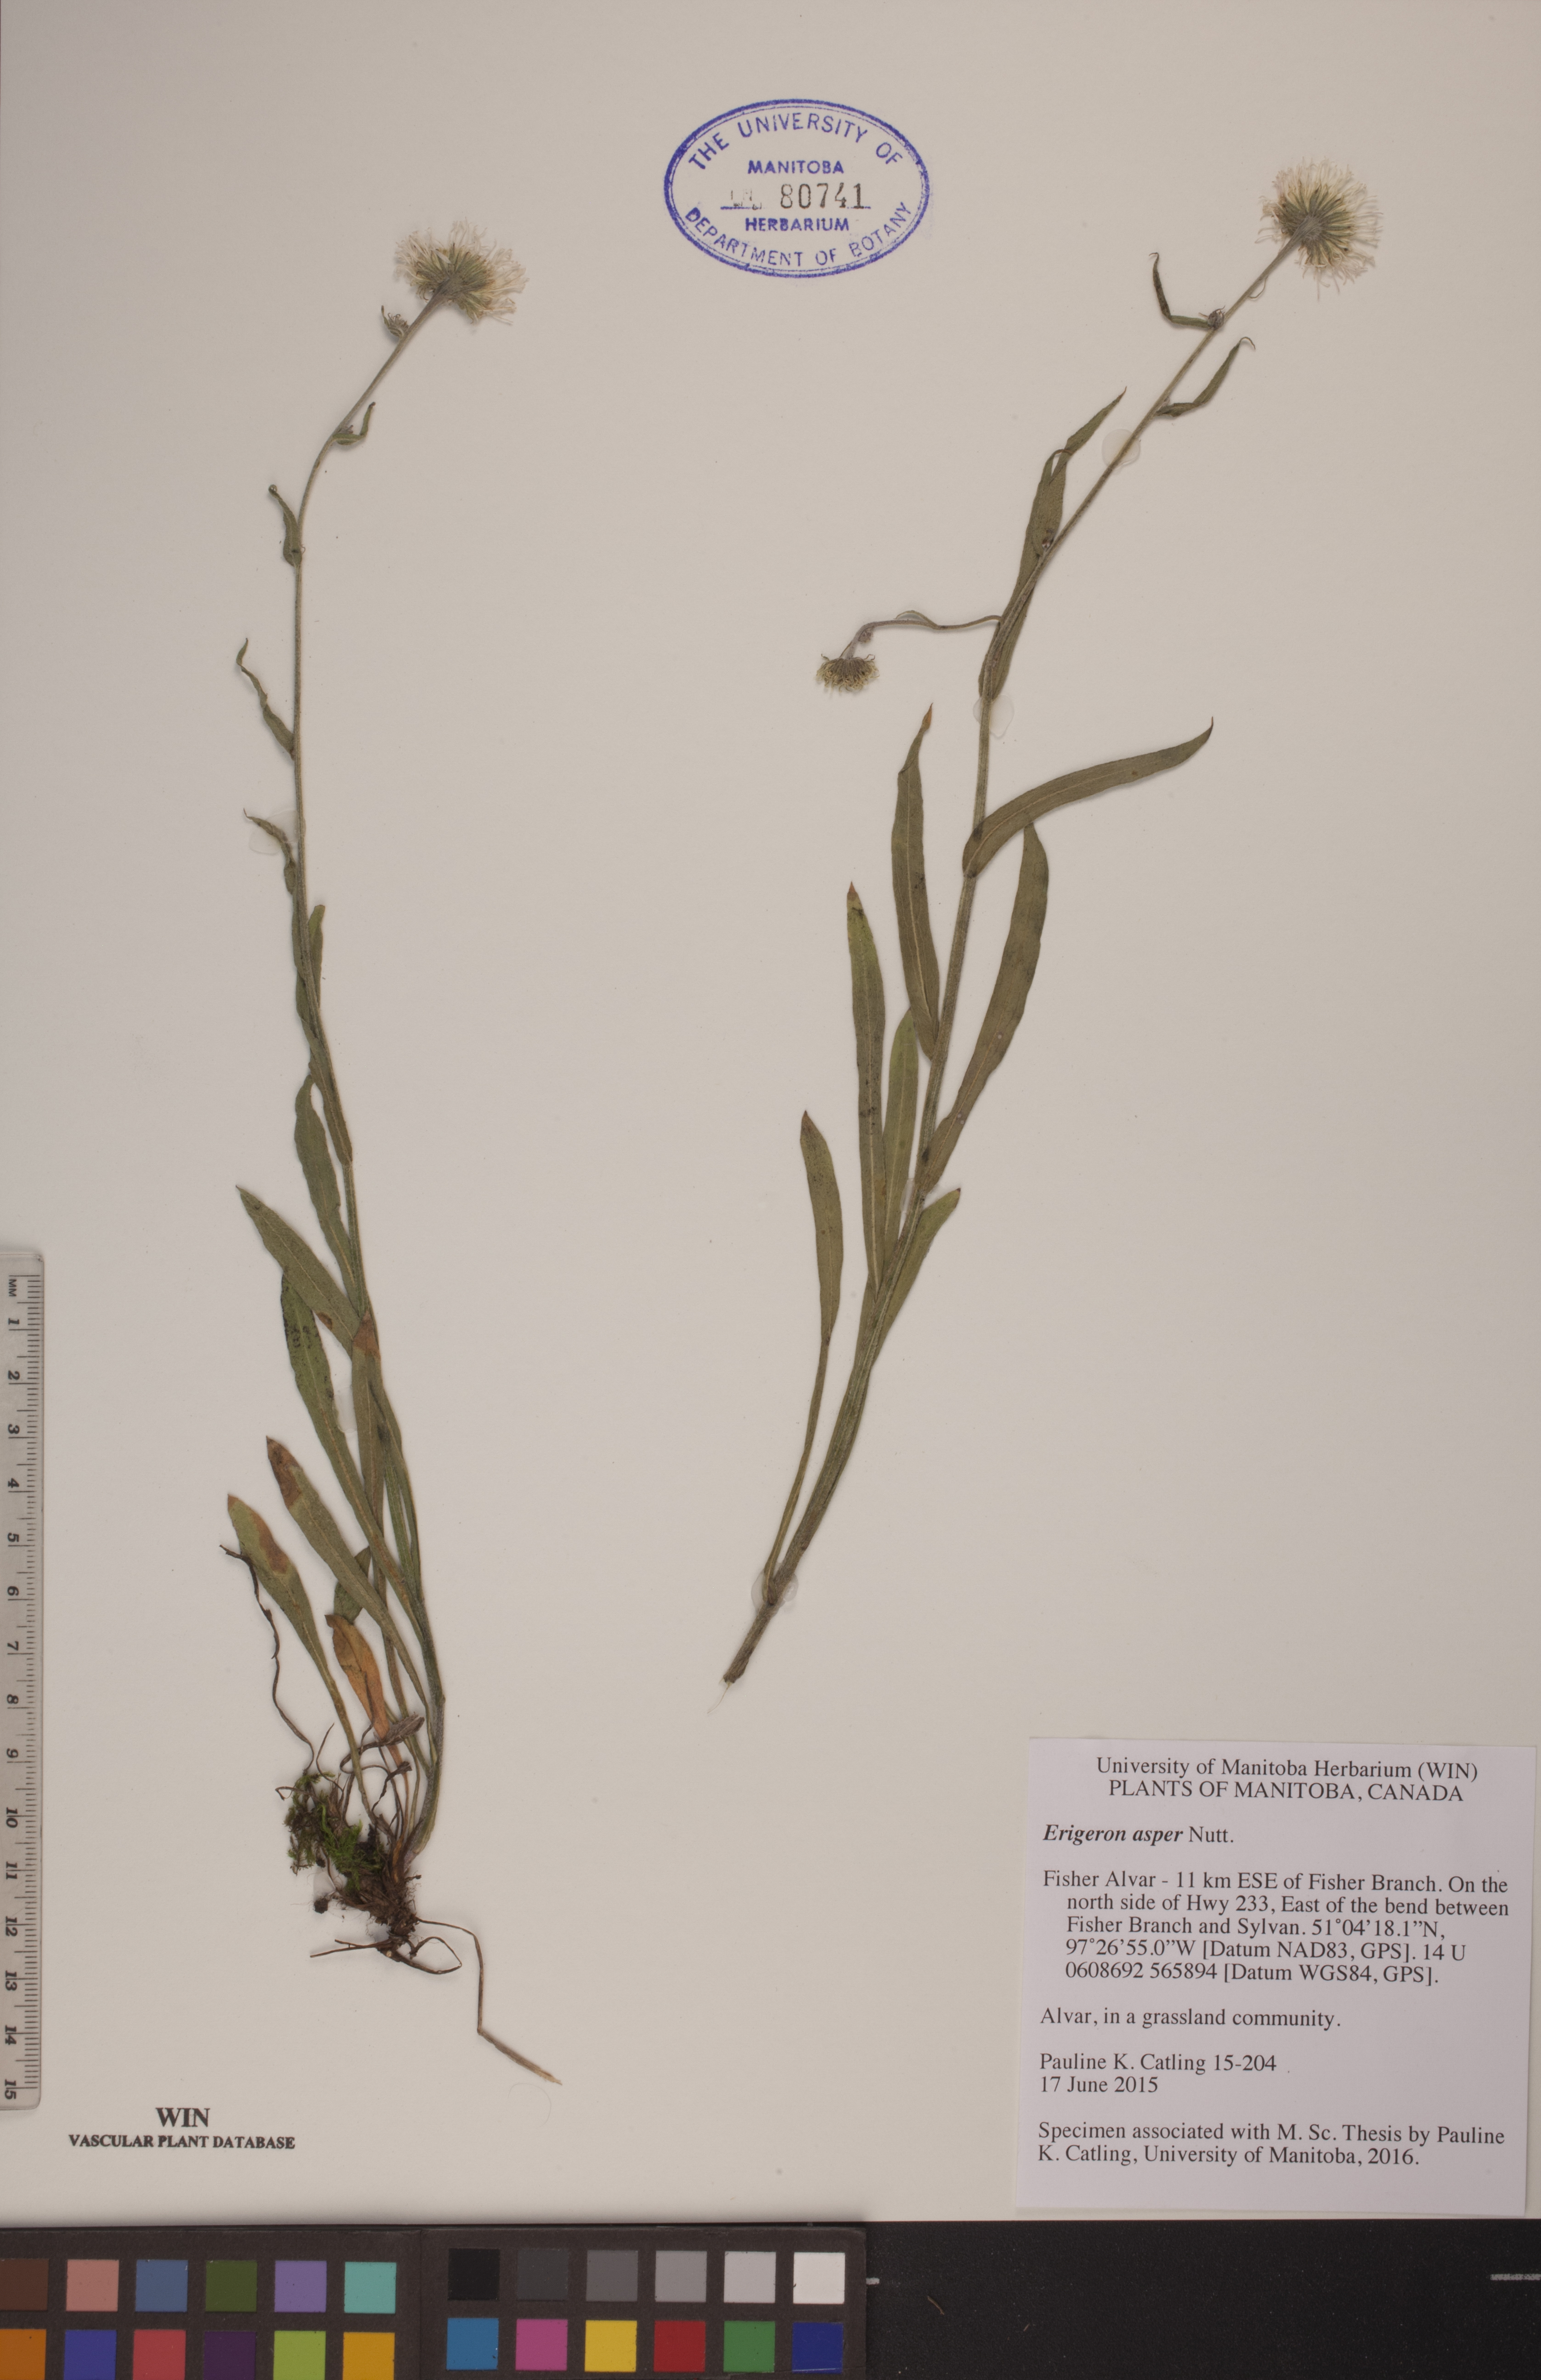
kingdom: Plantae
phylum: Tracheophyta
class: Magnoliopsida
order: Asterales
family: Asteraceae
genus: Erigeron
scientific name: Erigeron glabellus
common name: Smooth fleabane
